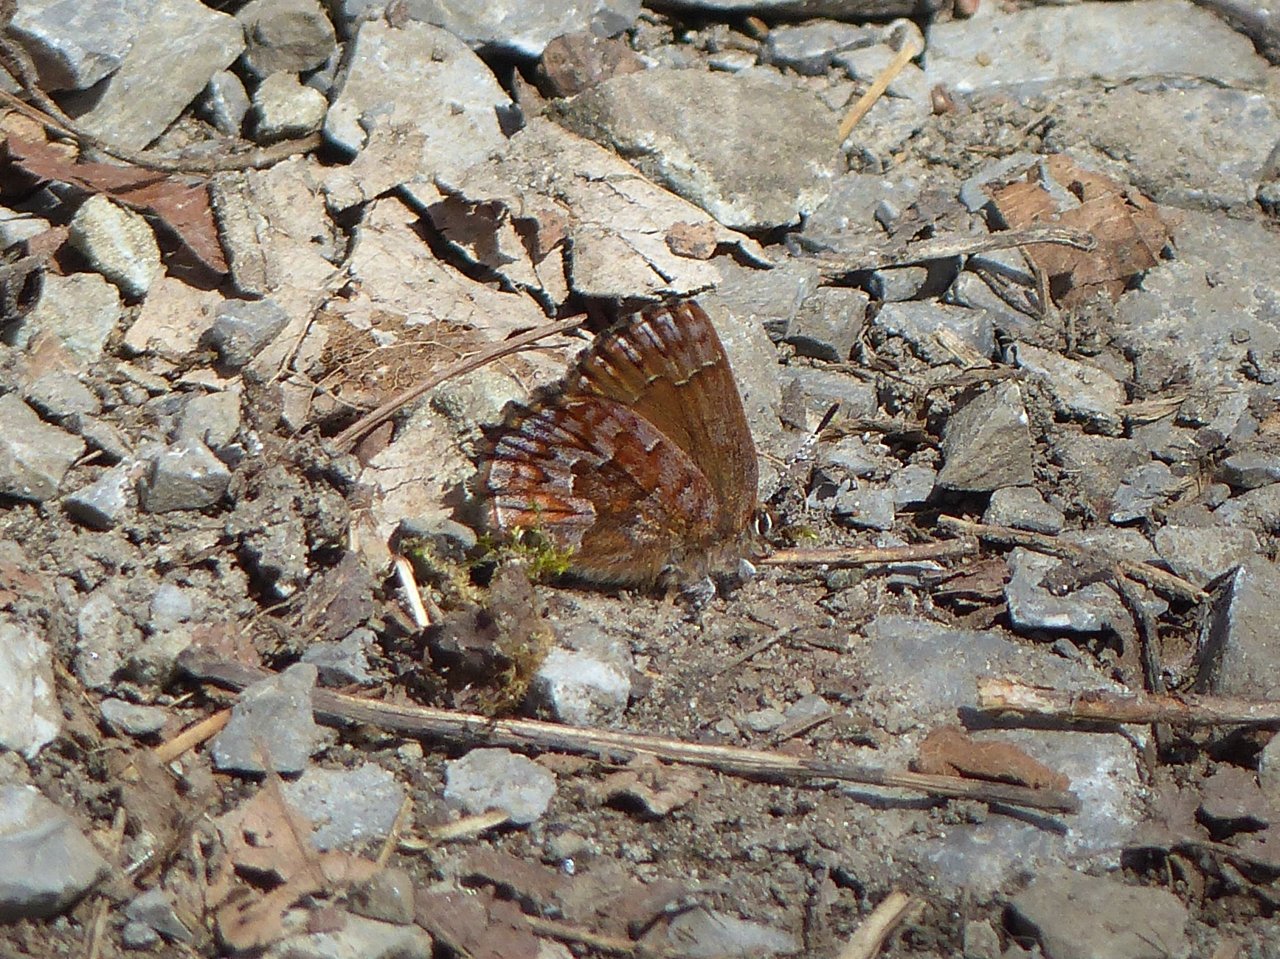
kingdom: Animalia
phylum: Arthropoda
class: Insecta
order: Lepidoptera
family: Lycaenidae
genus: Incisalia
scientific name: Incisalia niphon
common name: Eastern Pine Elfin
